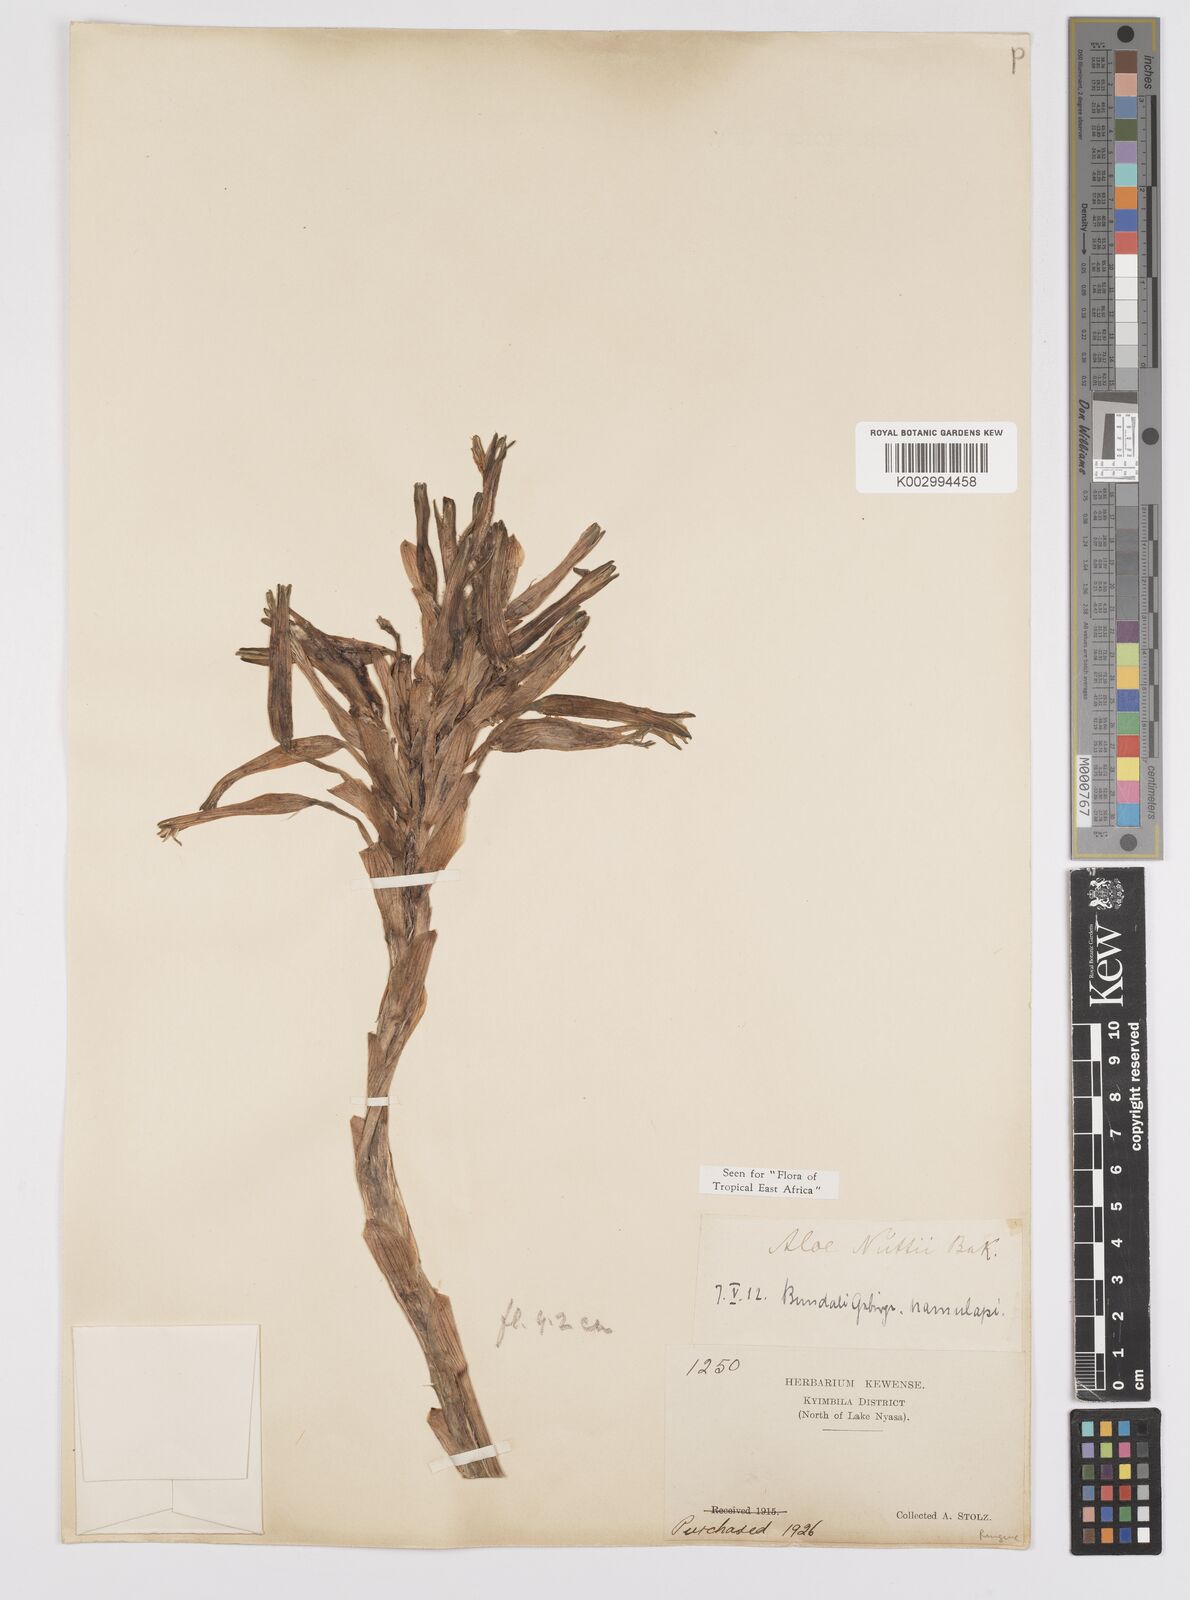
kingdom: Plantae
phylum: Tracheophyta
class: Liliopsida
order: Asparagales
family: Asphodelaceae
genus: Aloe
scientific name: Aloe nuttii
